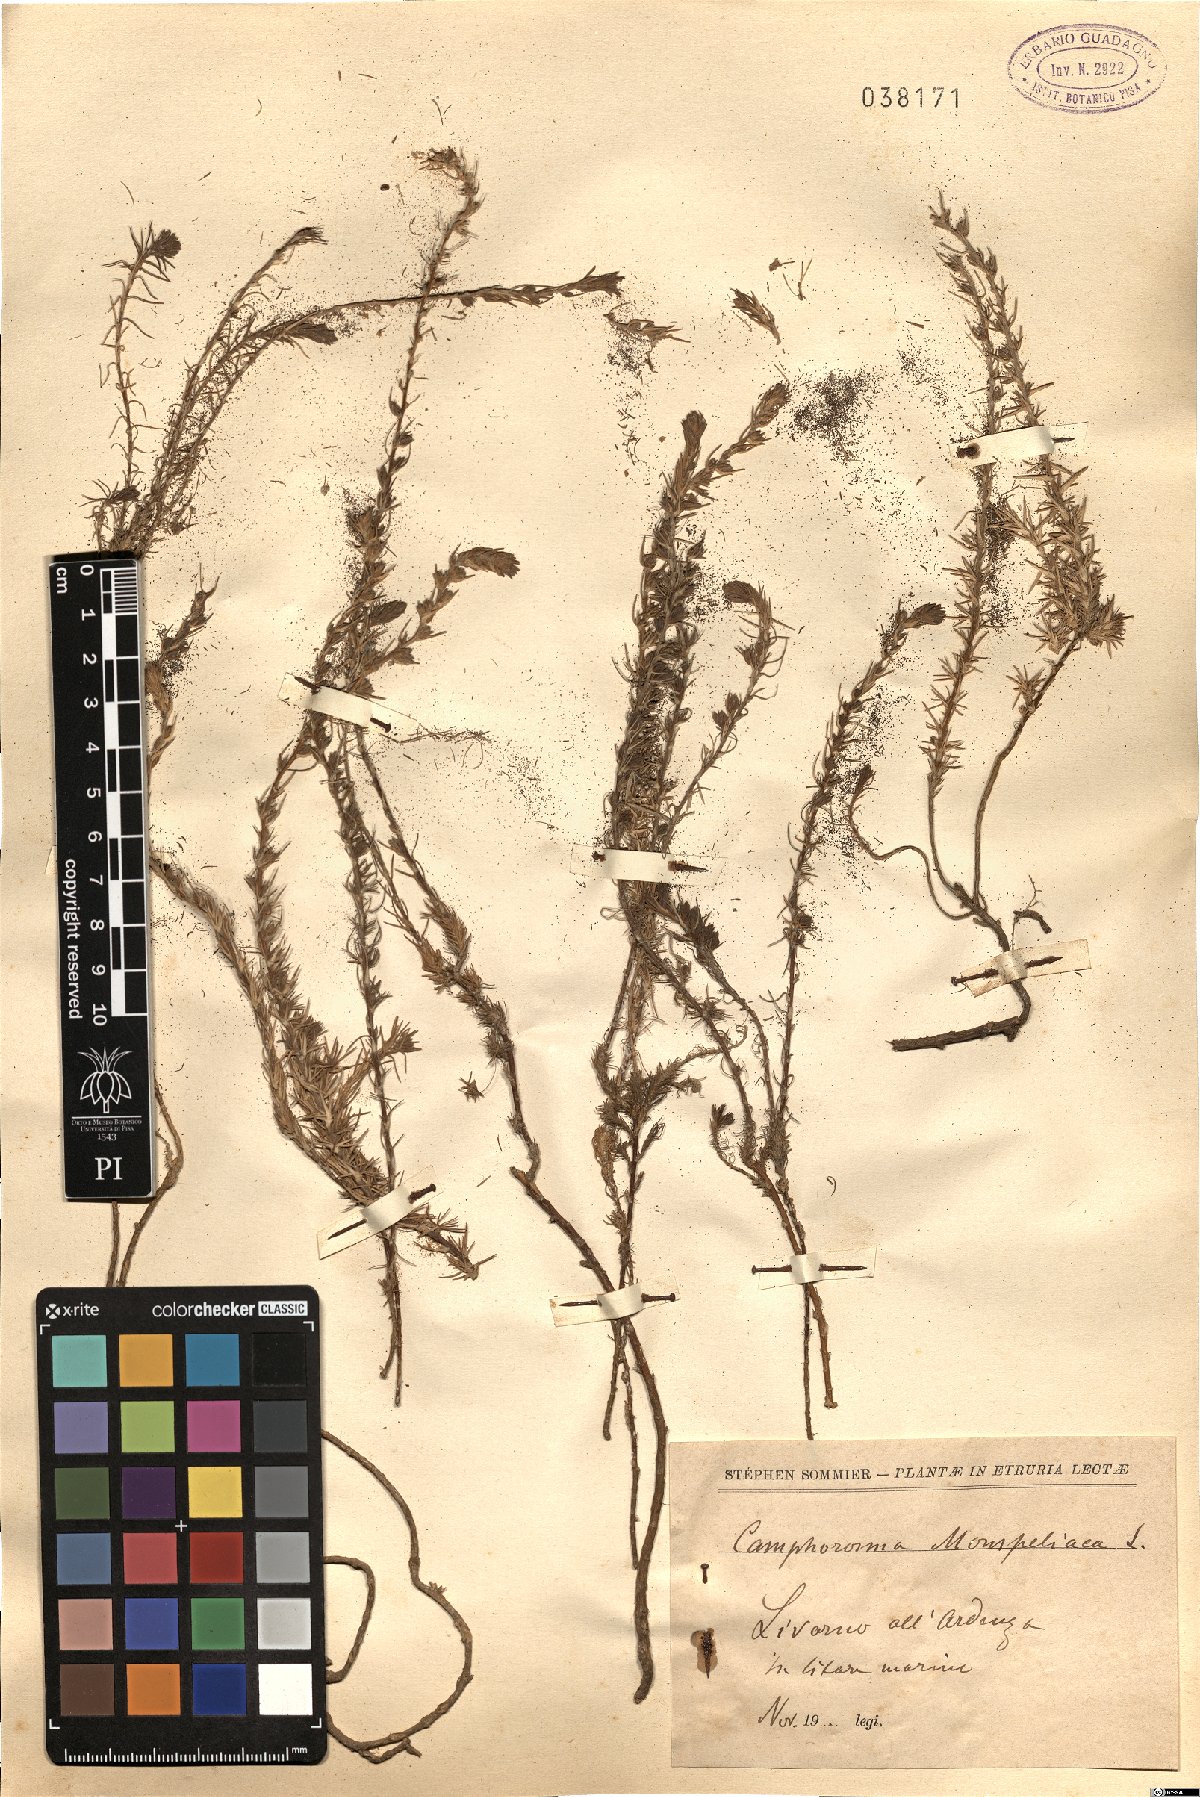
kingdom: Plantae
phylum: Tracheophyta
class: Magnoliopsida
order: Caryophyllales
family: Amaranthaceae
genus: Camphorosma
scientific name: Camphorosma monspeliaca
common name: Camphorfume
